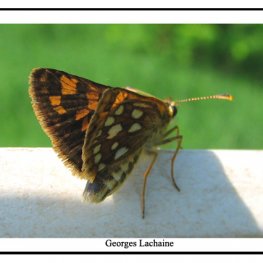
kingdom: Animalia
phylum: Arthropoda
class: Insecta
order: Lepidoptera
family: Hesperiidae
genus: Carterocephalus
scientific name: Carterocephalus palaemon
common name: Chequered Skipper
